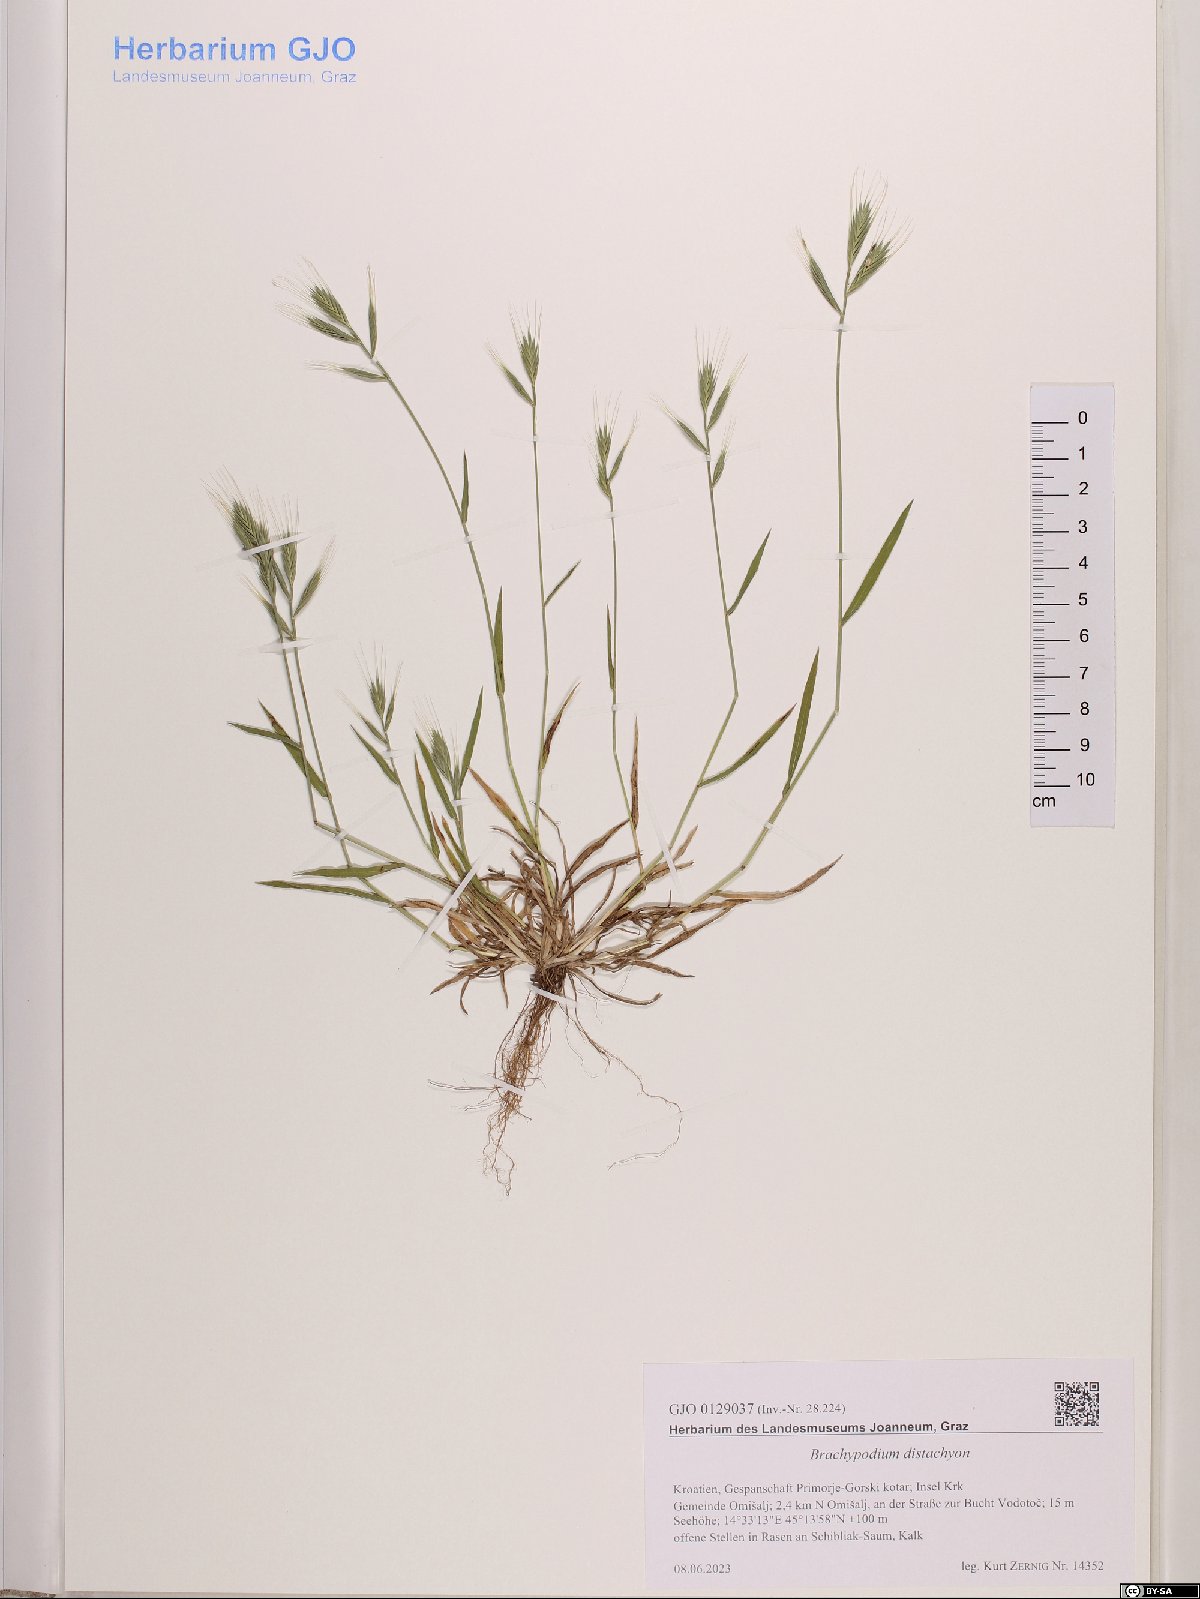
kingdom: Plantae
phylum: Tracheophyta
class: Liliopsida
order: Poales
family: Poaceae
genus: Brachypodium
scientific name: Brachypodium distachyon
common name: Stiff brome
